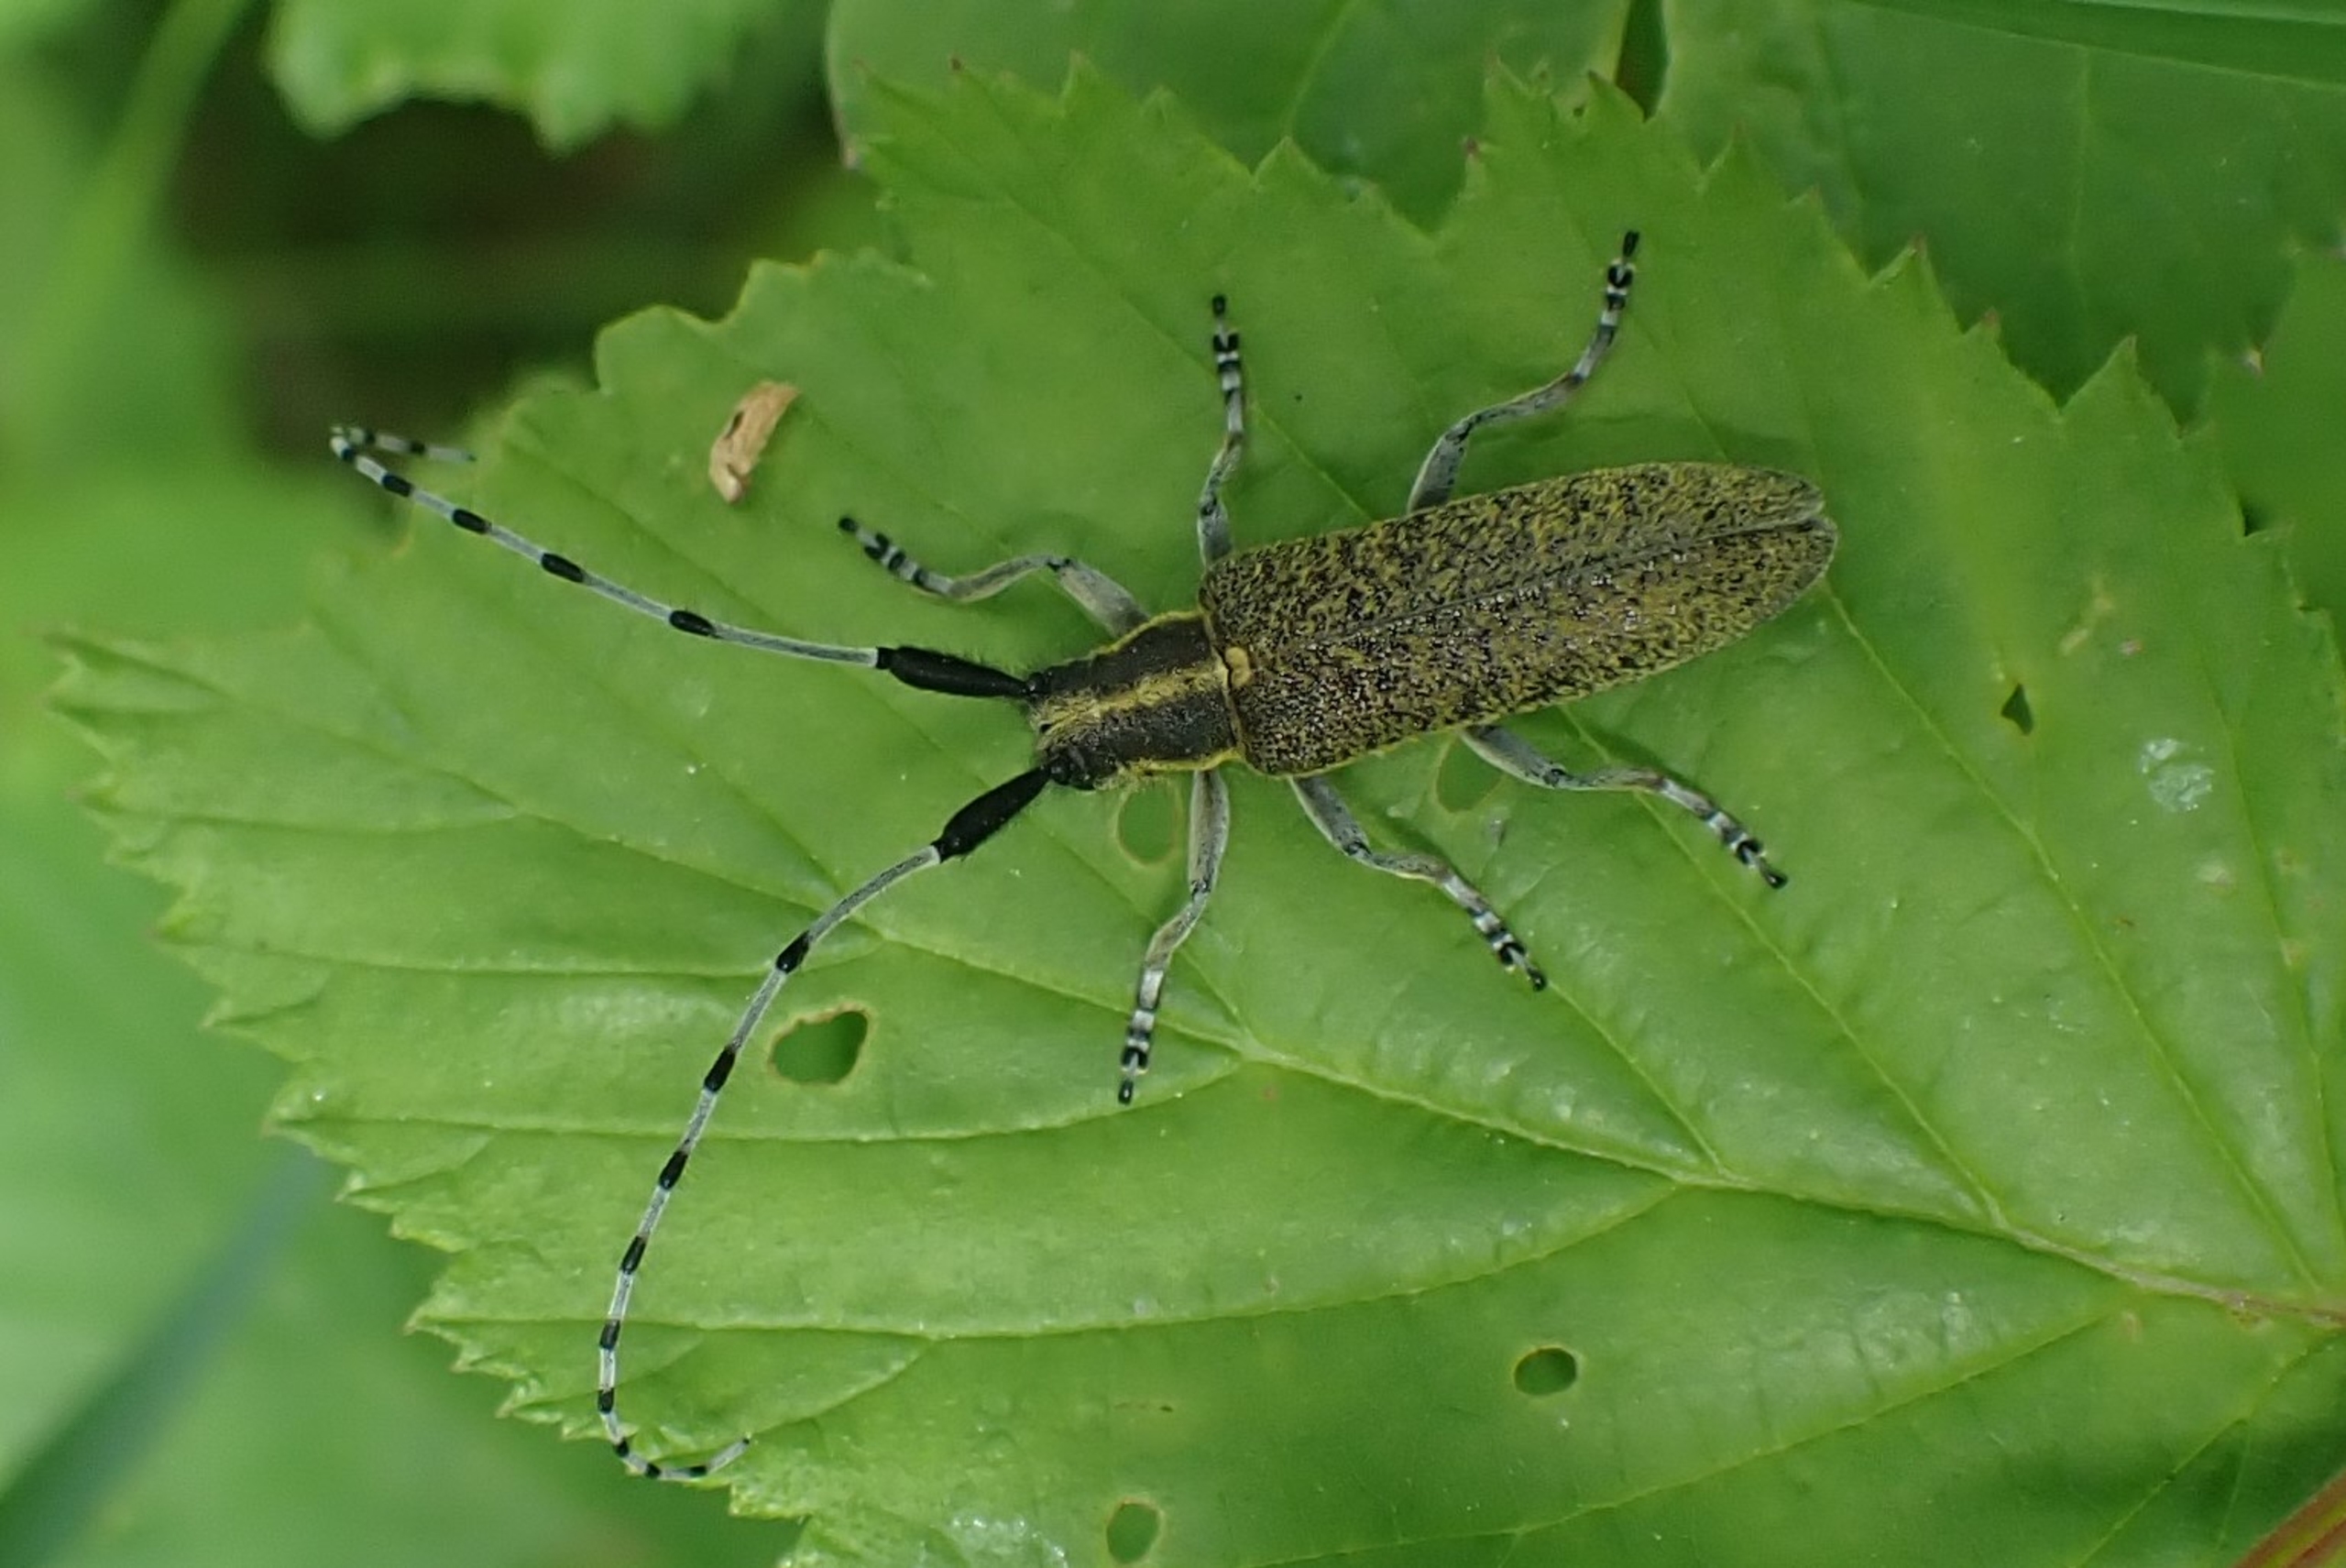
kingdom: Animalia
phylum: Arthropoda
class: Insecta
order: Coleoptera
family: Cerambycidae
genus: Agapanthia
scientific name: Agapanthia villosoviridescens
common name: Tidselbuk
